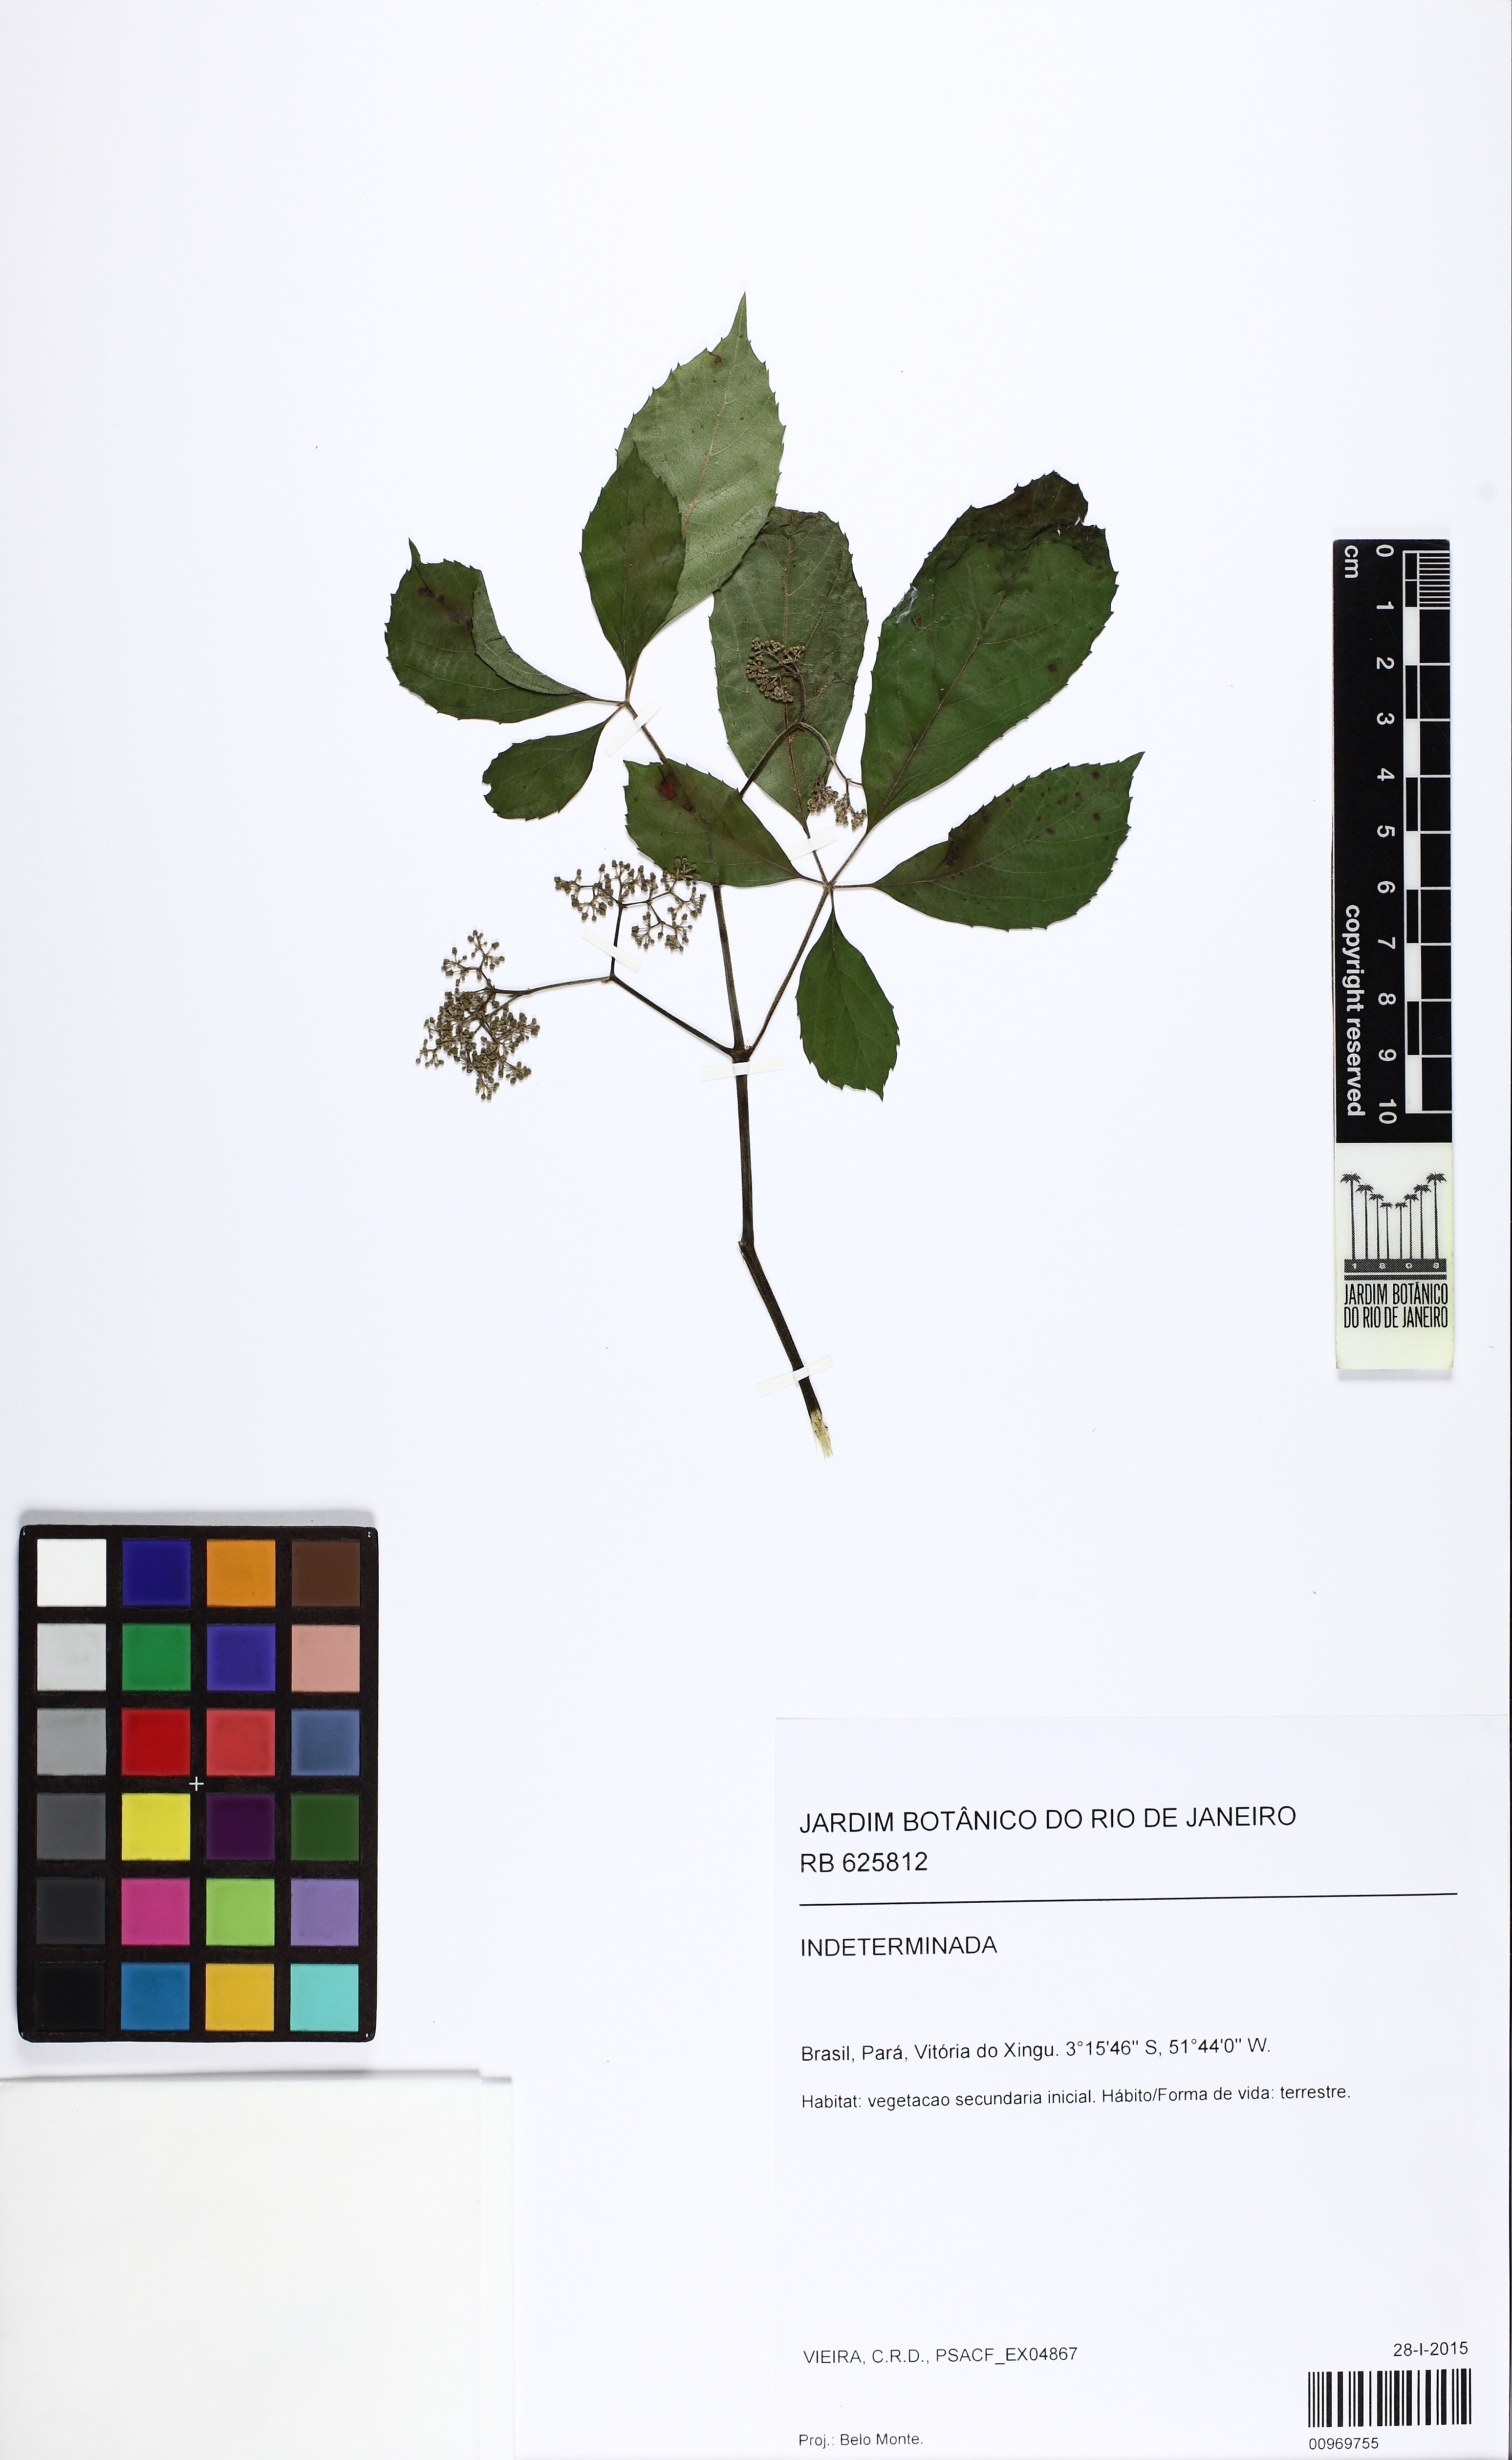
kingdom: Plantae
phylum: Tracheophyta
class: Magnoliopsida
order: Vitales
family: Vitaceae
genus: Cissus
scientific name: Cissus
